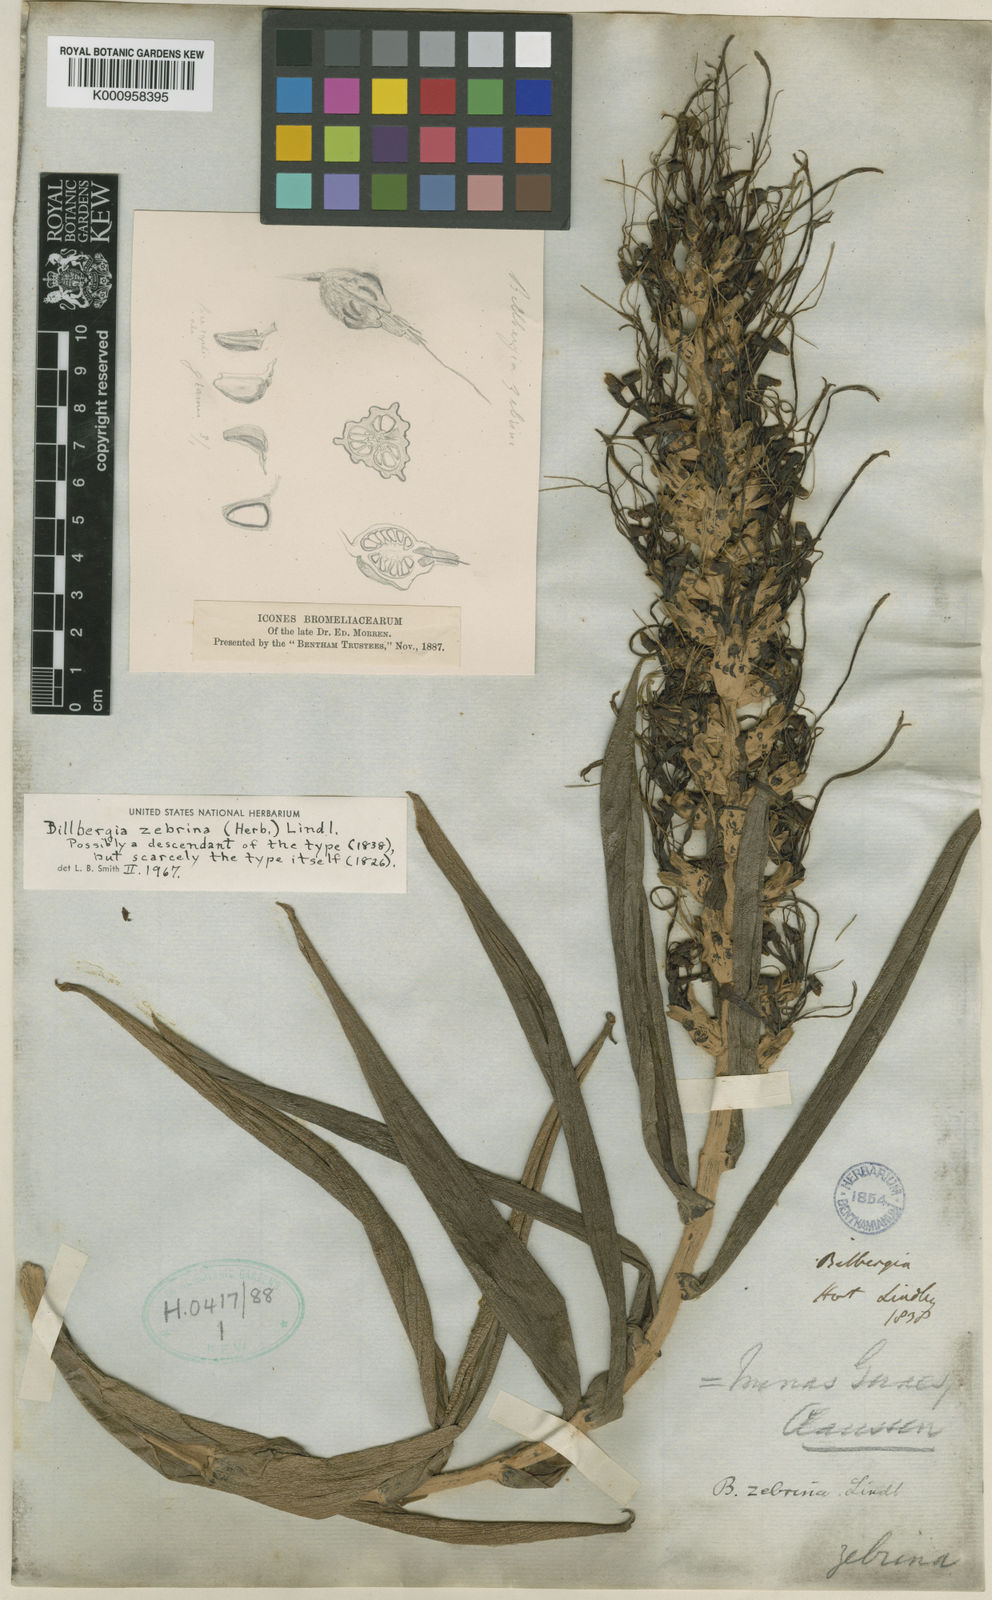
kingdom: Plantae
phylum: Tracheophyta
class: Liliopsida
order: Poales
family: Bromeliaceae
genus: Billbergia
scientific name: Billbergia zebrina
